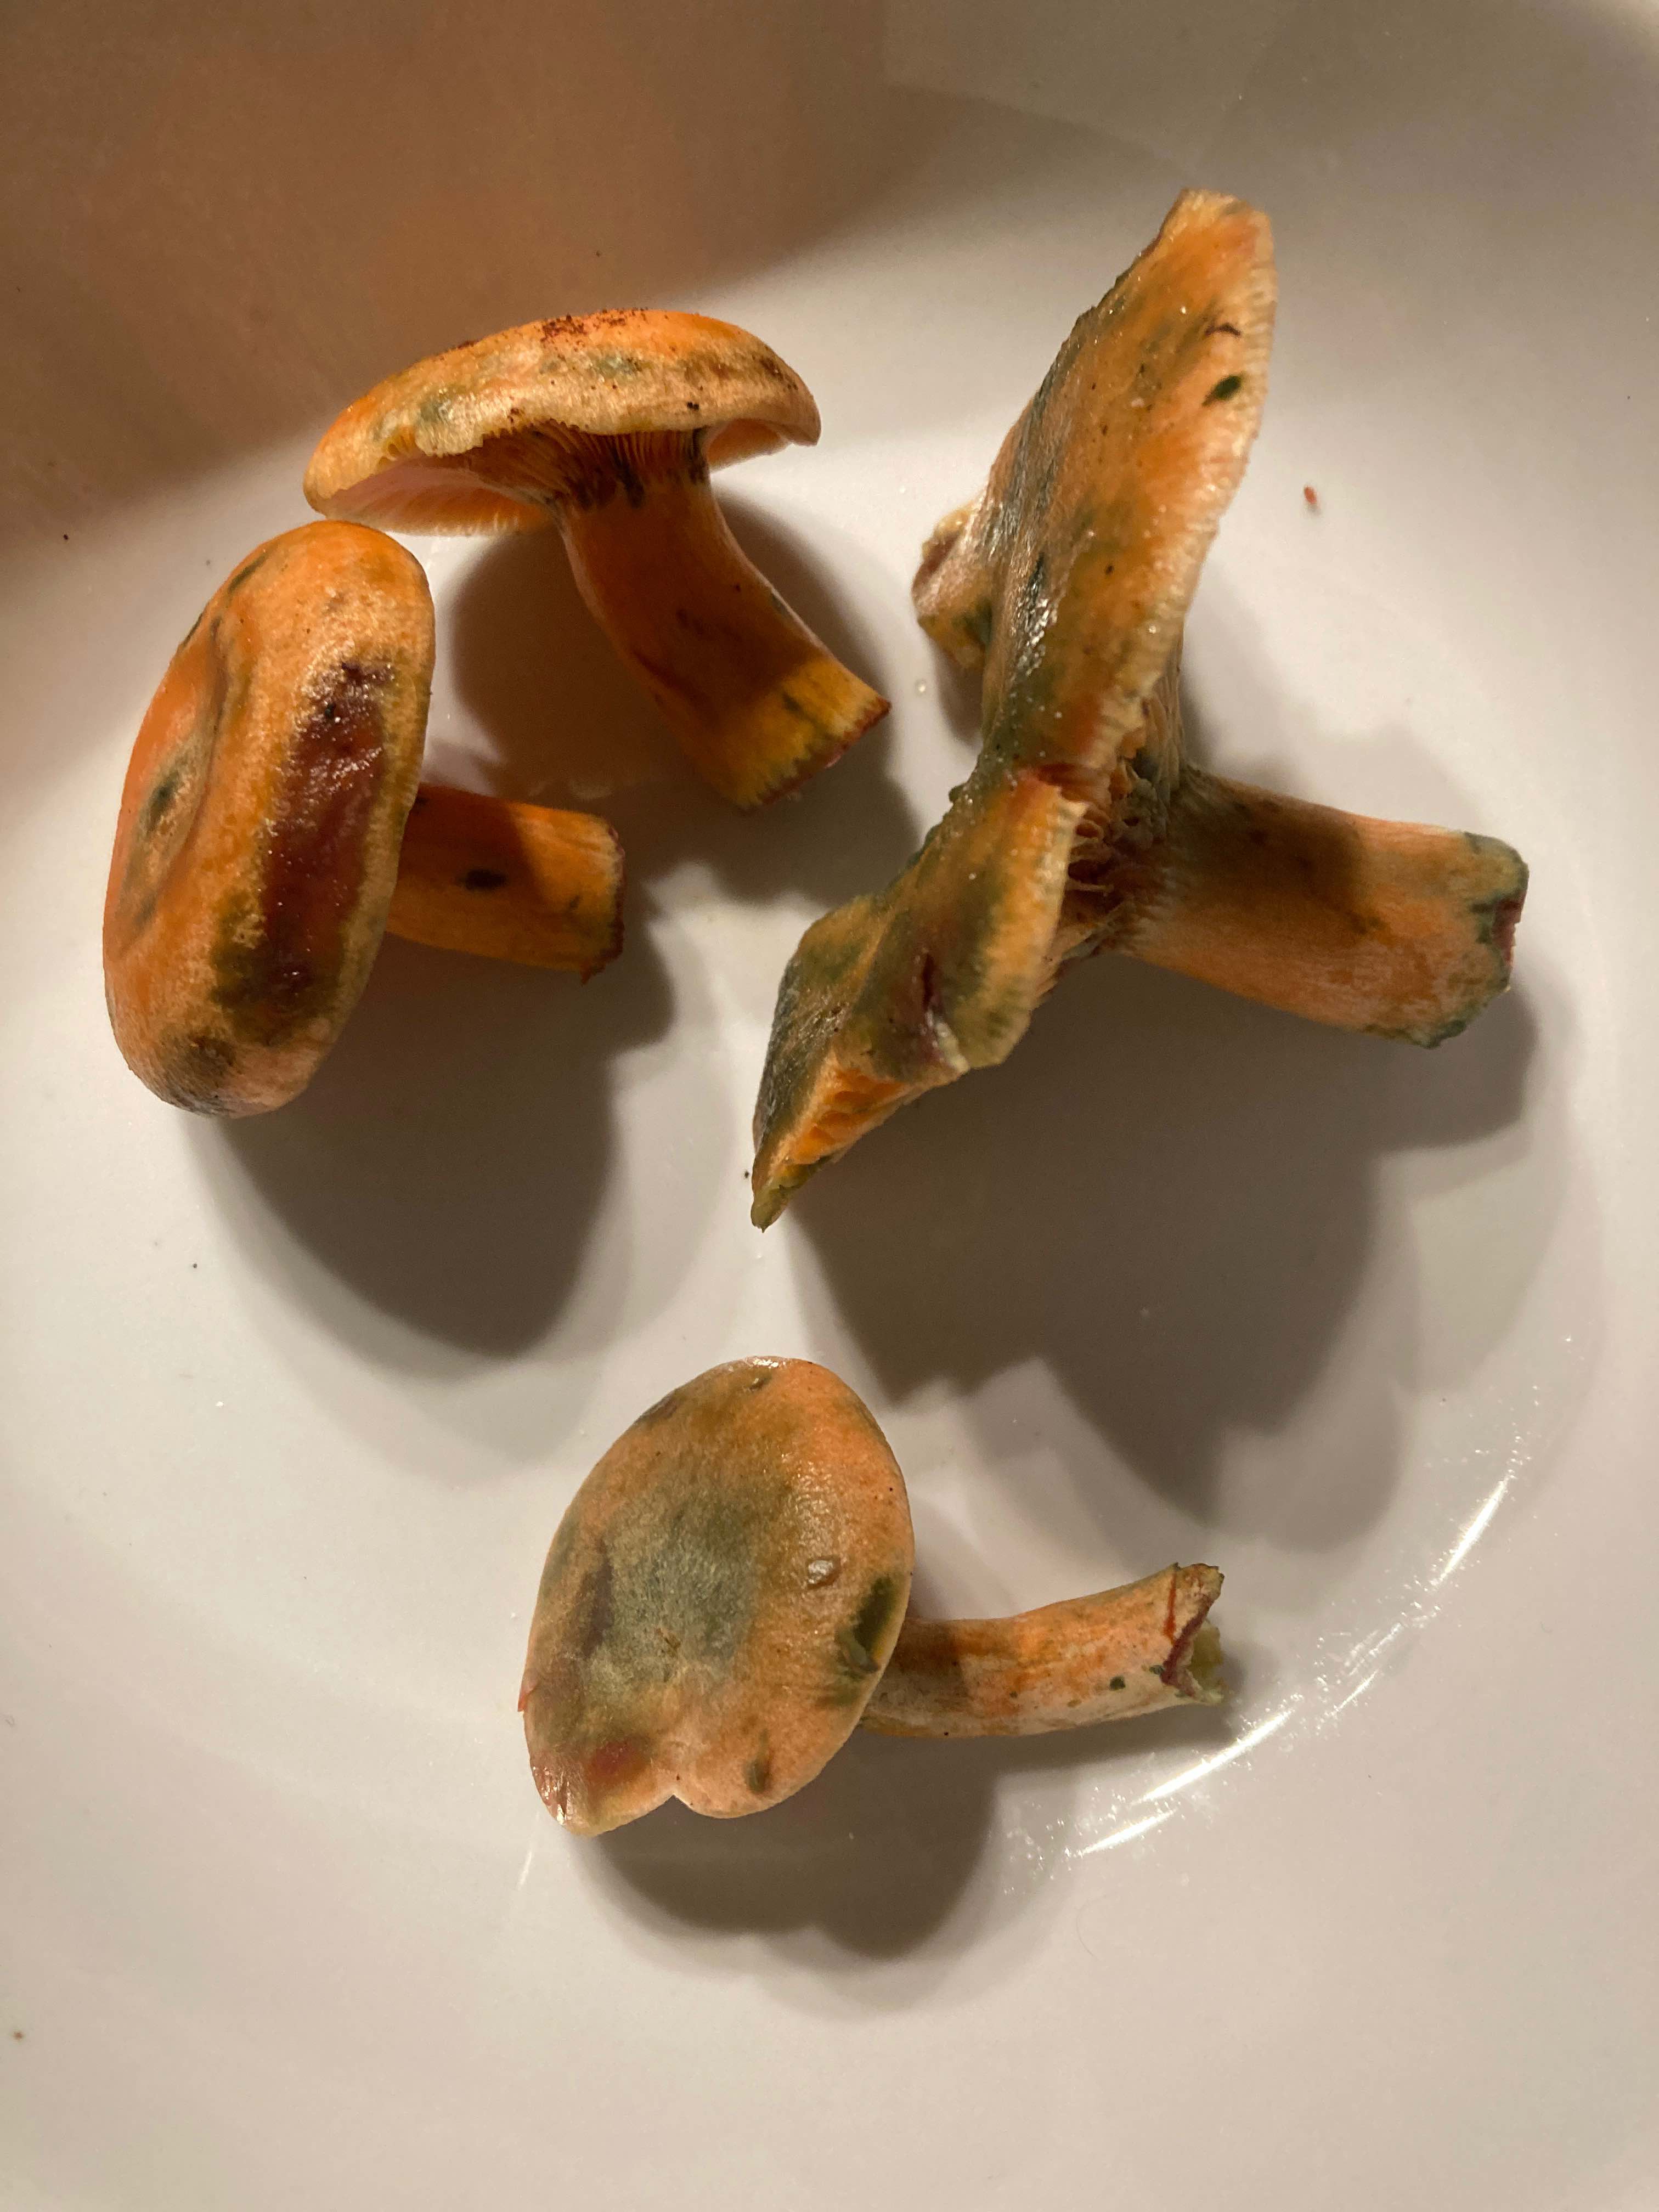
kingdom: Fungi
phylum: Basidiomycota
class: Agaricomycetes
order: Russulales
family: Russulaceae
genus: Lactarius
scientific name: Lactarius deterrimus
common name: gran-mælkehat
